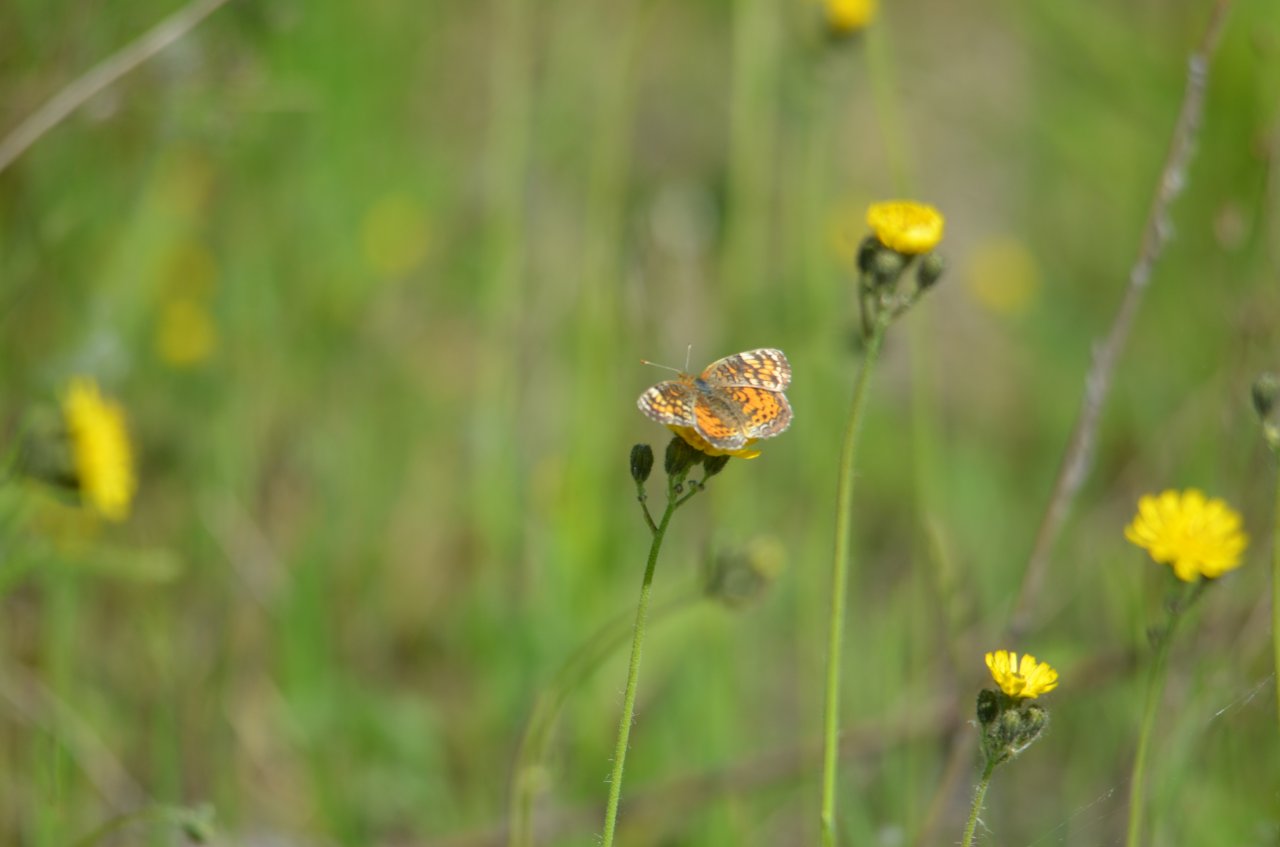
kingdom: Animalia
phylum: Arthropoda
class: Insecta
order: Lepidoptera
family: Nymphalidae
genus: Phyciodes
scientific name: Phyciodes
